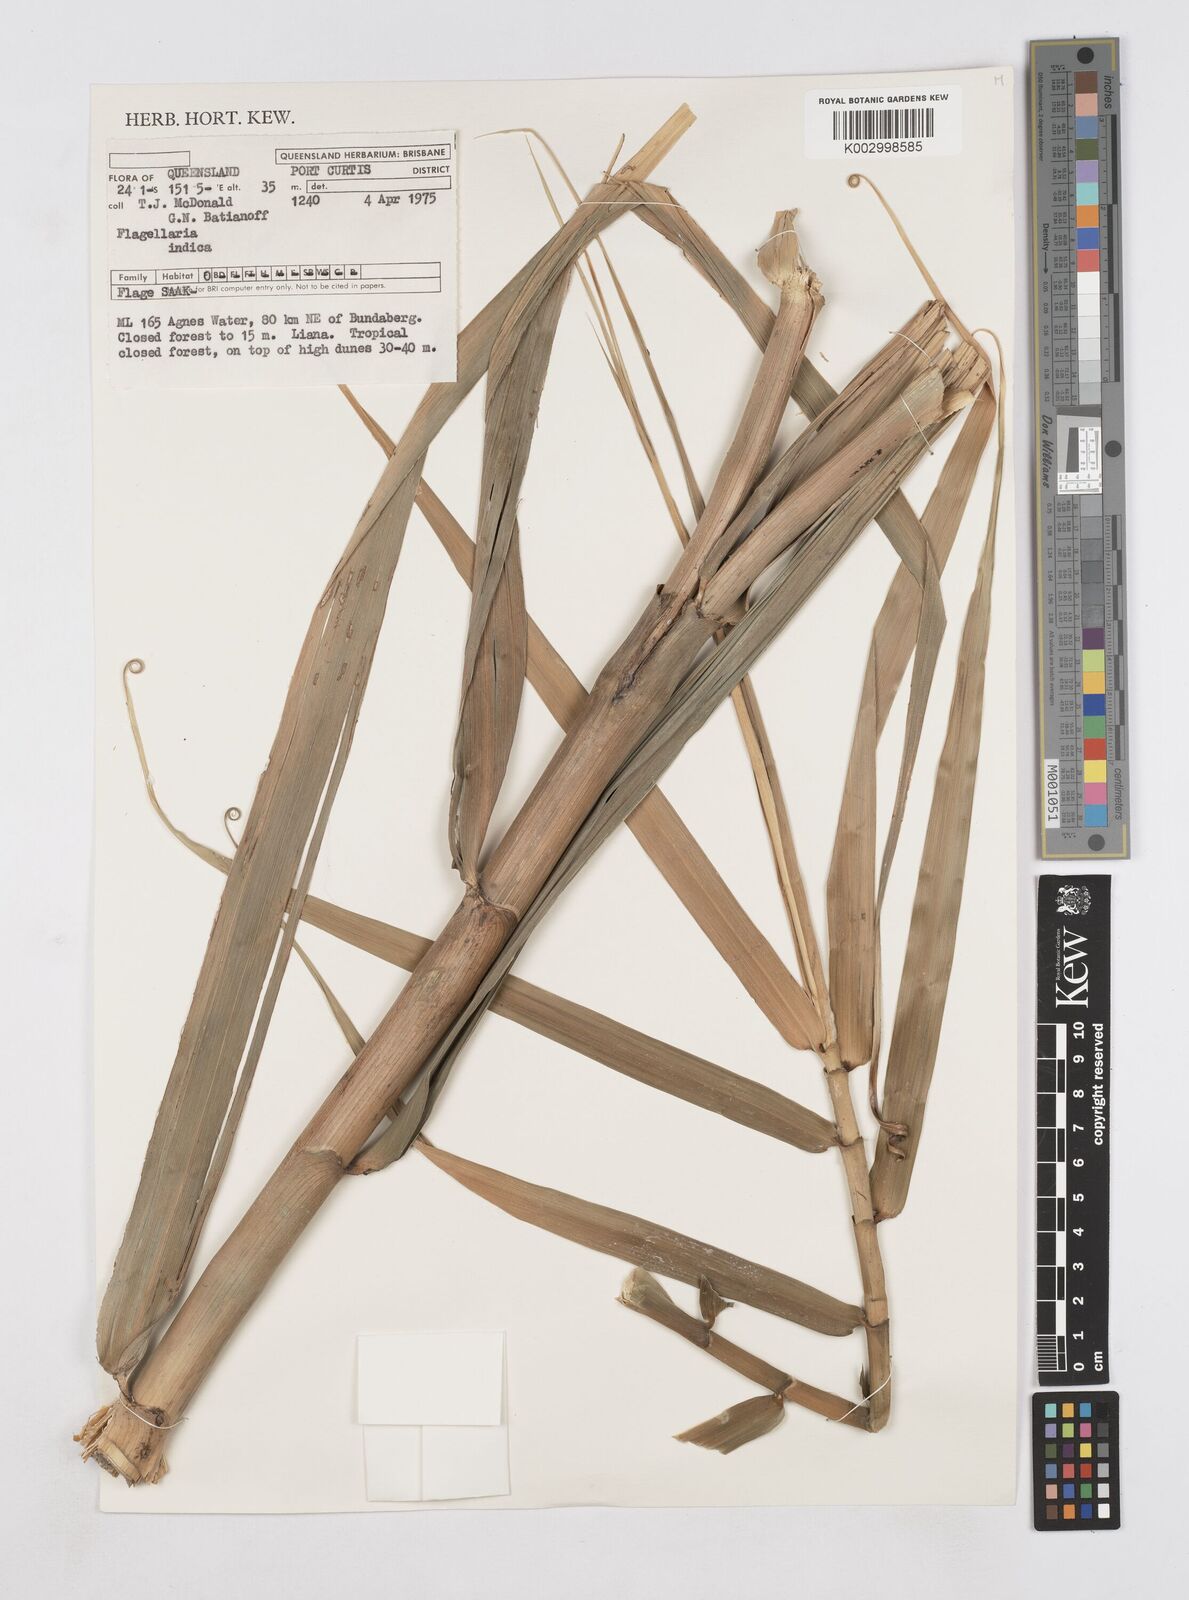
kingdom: Plantae
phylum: Tracheophyta
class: Liliopsida
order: Poales
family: Flagellariaceae
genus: Flagellaria
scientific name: Flagellaria indica
